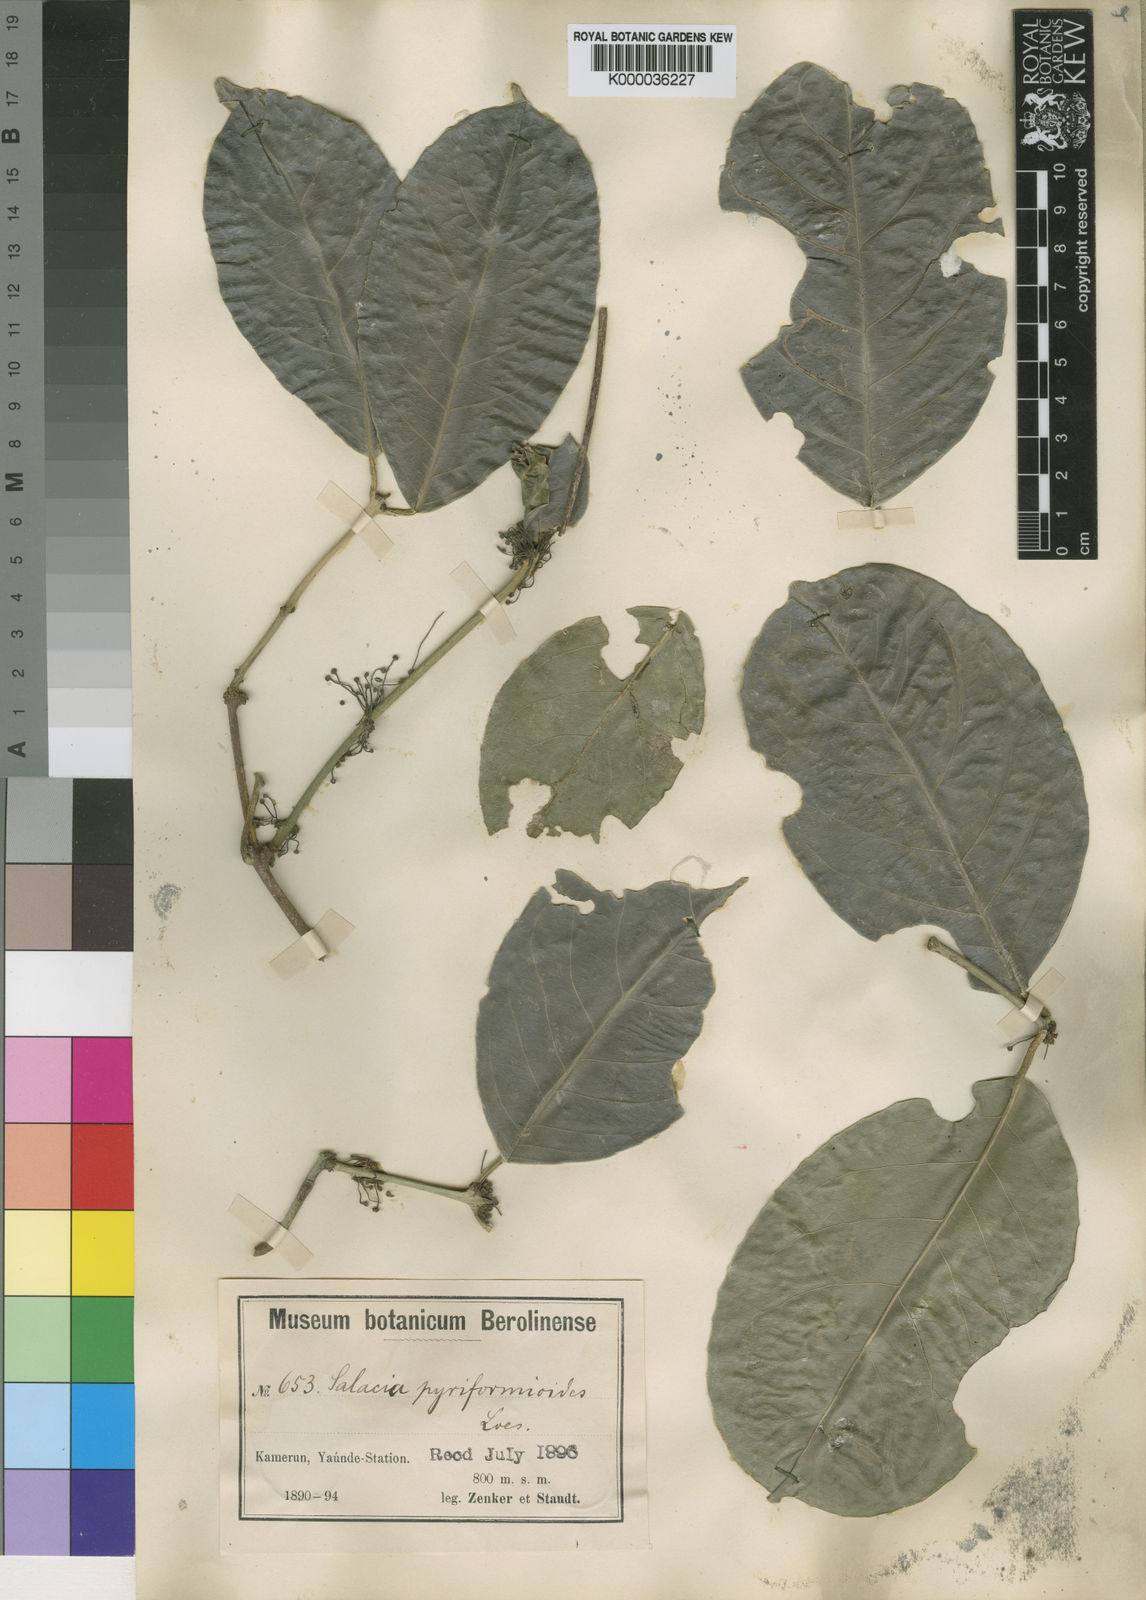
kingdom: Plantae
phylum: Tracheophyta
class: Magnoliopsida
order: Celastrales
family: Celastraceae
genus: Salacia
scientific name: Salacia pyriformioides
